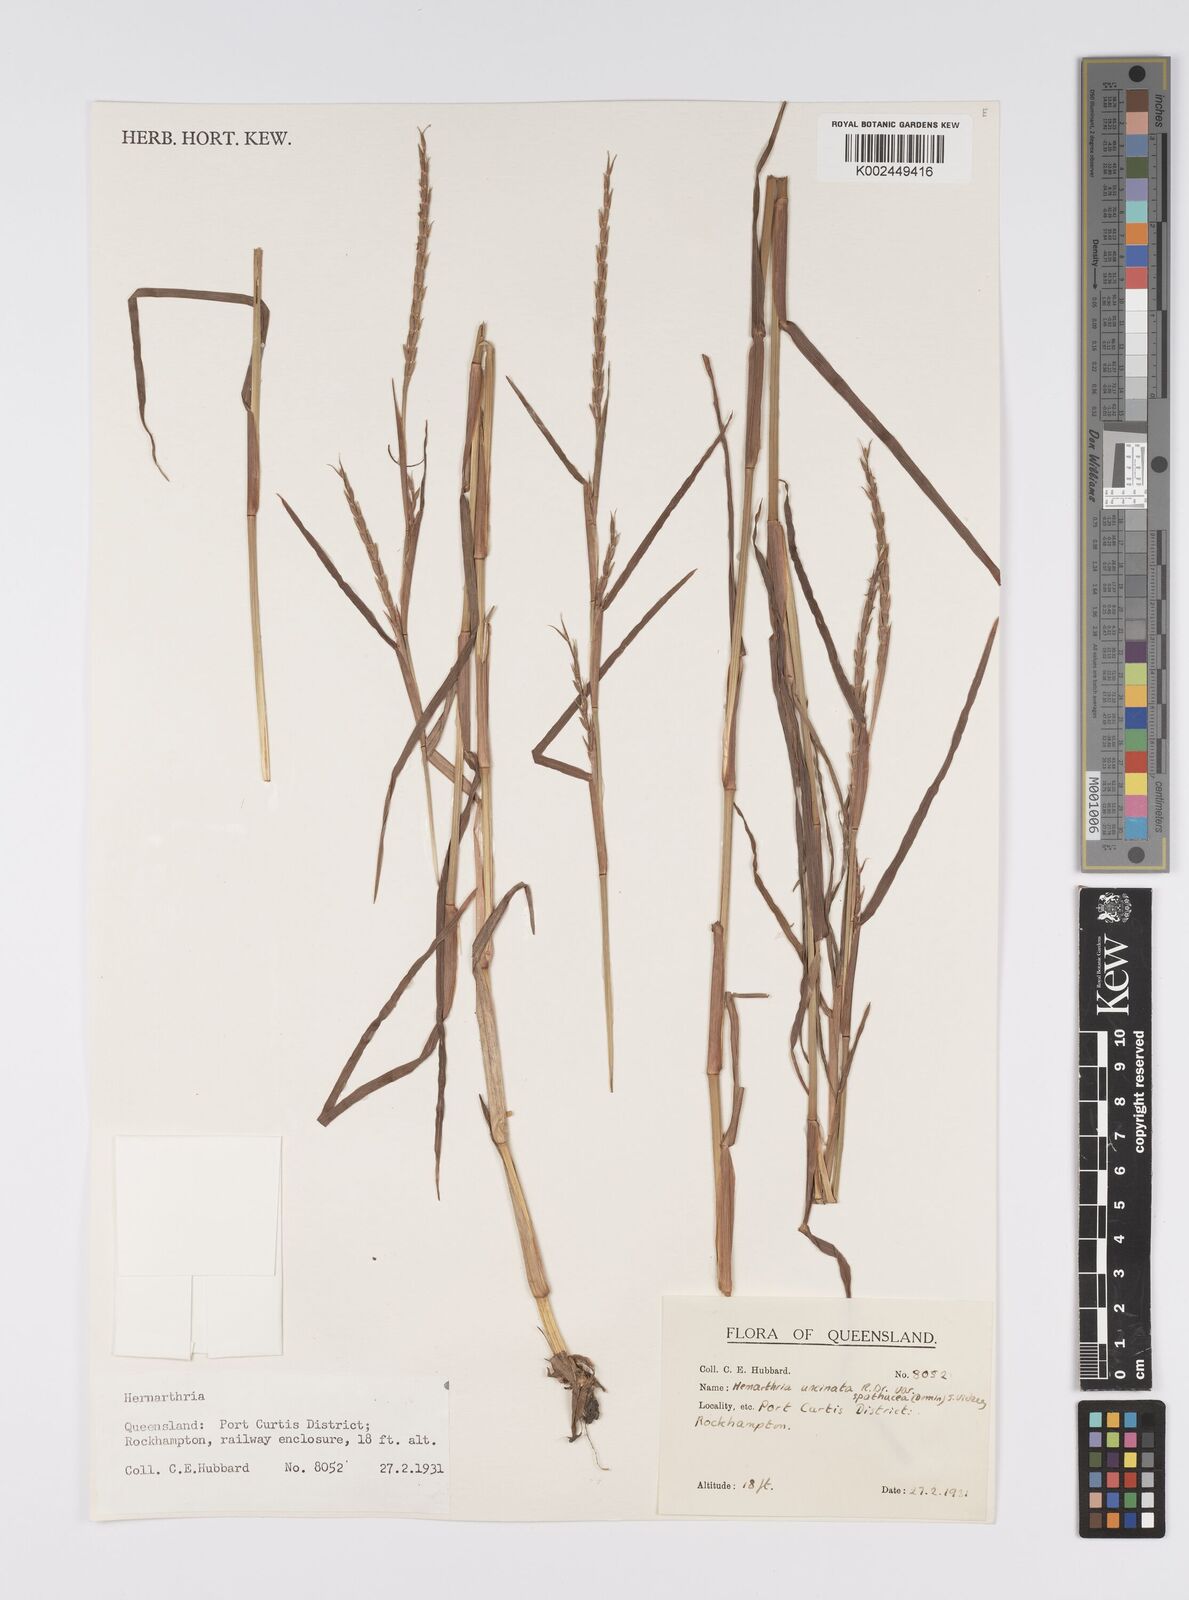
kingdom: Plantae
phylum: Tracheophyta
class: Liliopsida
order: Poales
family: Poaceae
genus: Hemarthria
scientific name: Hemarthria uncinata
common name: Matgrass
